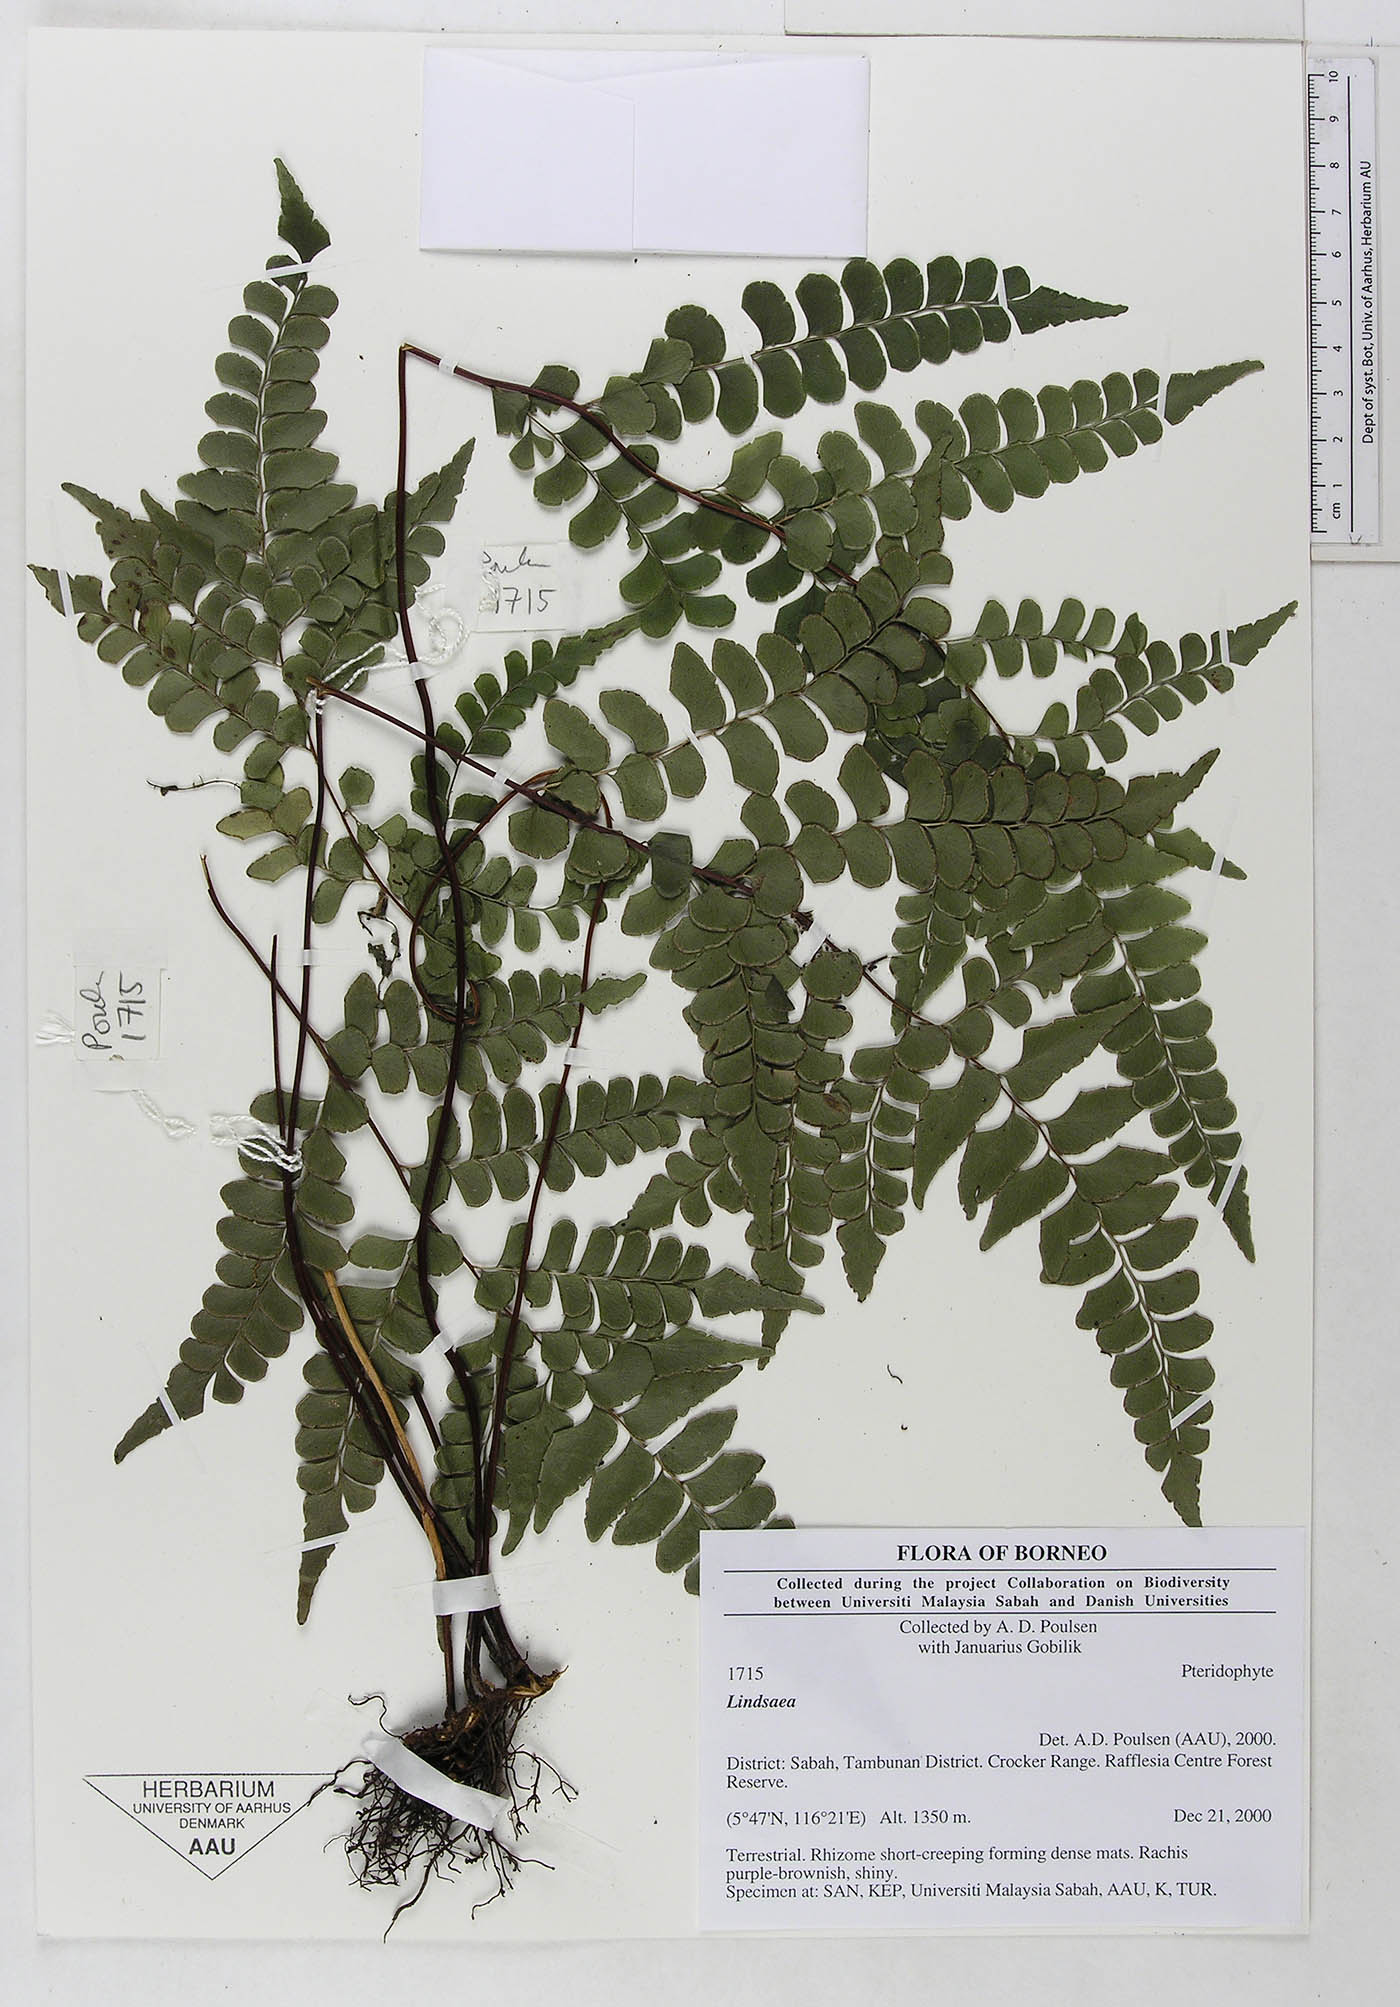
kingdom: Plantae
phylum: Tracheophyta
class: Polypodiopsida
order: Polypodiales
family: Dennstaedtiaceae
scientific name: Dennstaedtiaceae
